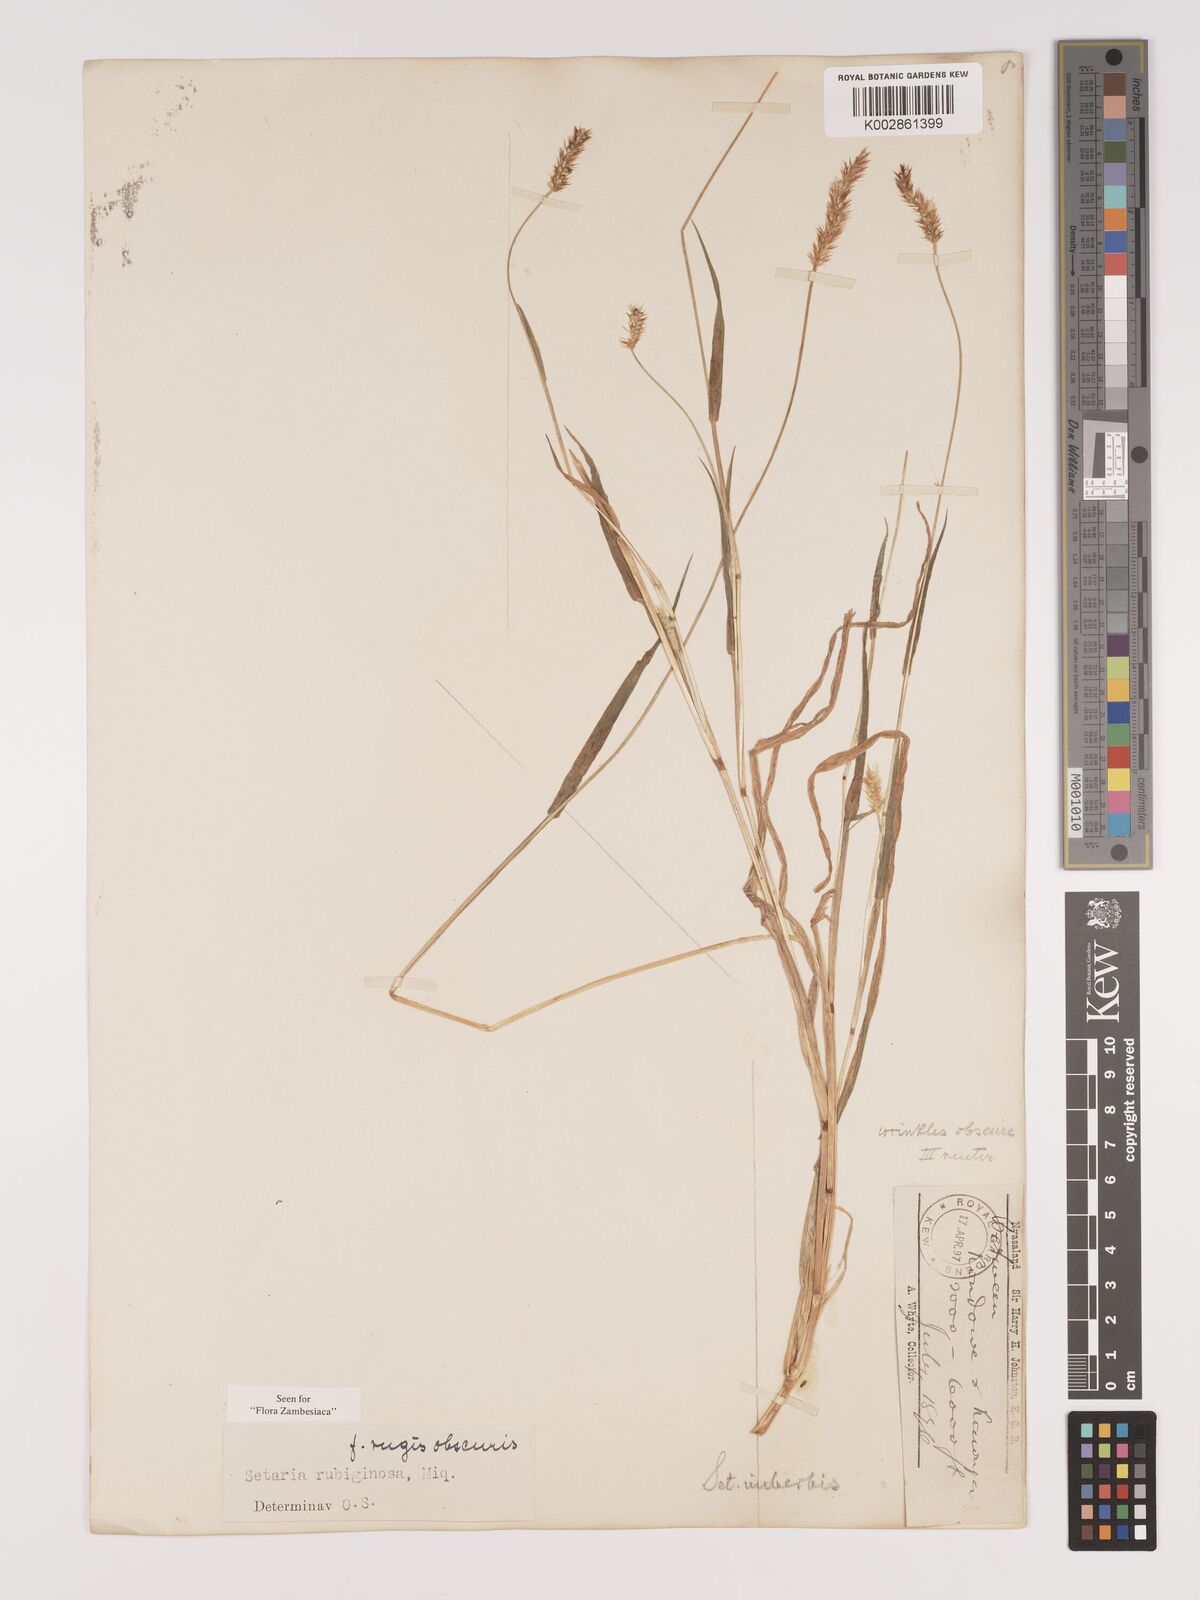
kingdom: Plantae
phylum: Tracheophyta
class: Liliopsida
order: Poales
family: Poaceae
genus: Setaria
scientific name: Setaria pumila
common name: Yellow bristle-grass
